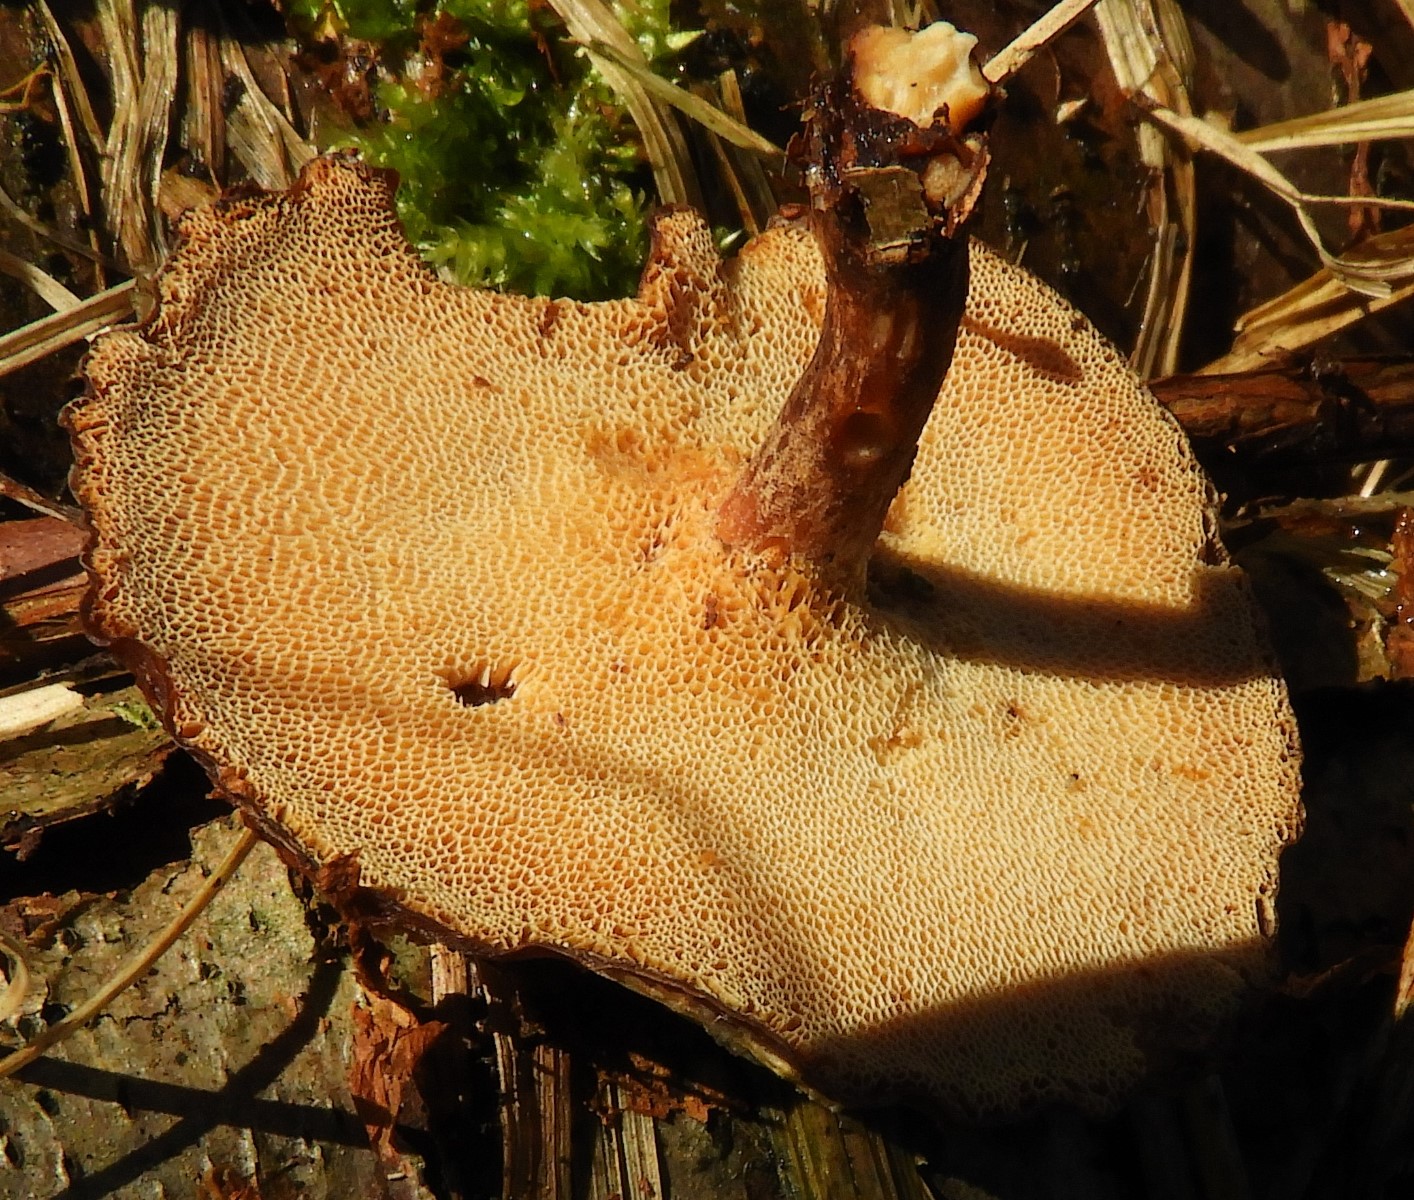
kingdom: Fungi
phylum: Basidiomycota
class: Agaricomycetes
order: Polyporales
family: Polyporaceae
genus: Lentinus
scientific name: Lentinus brumalis
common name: vinter-stilkporesvamp
